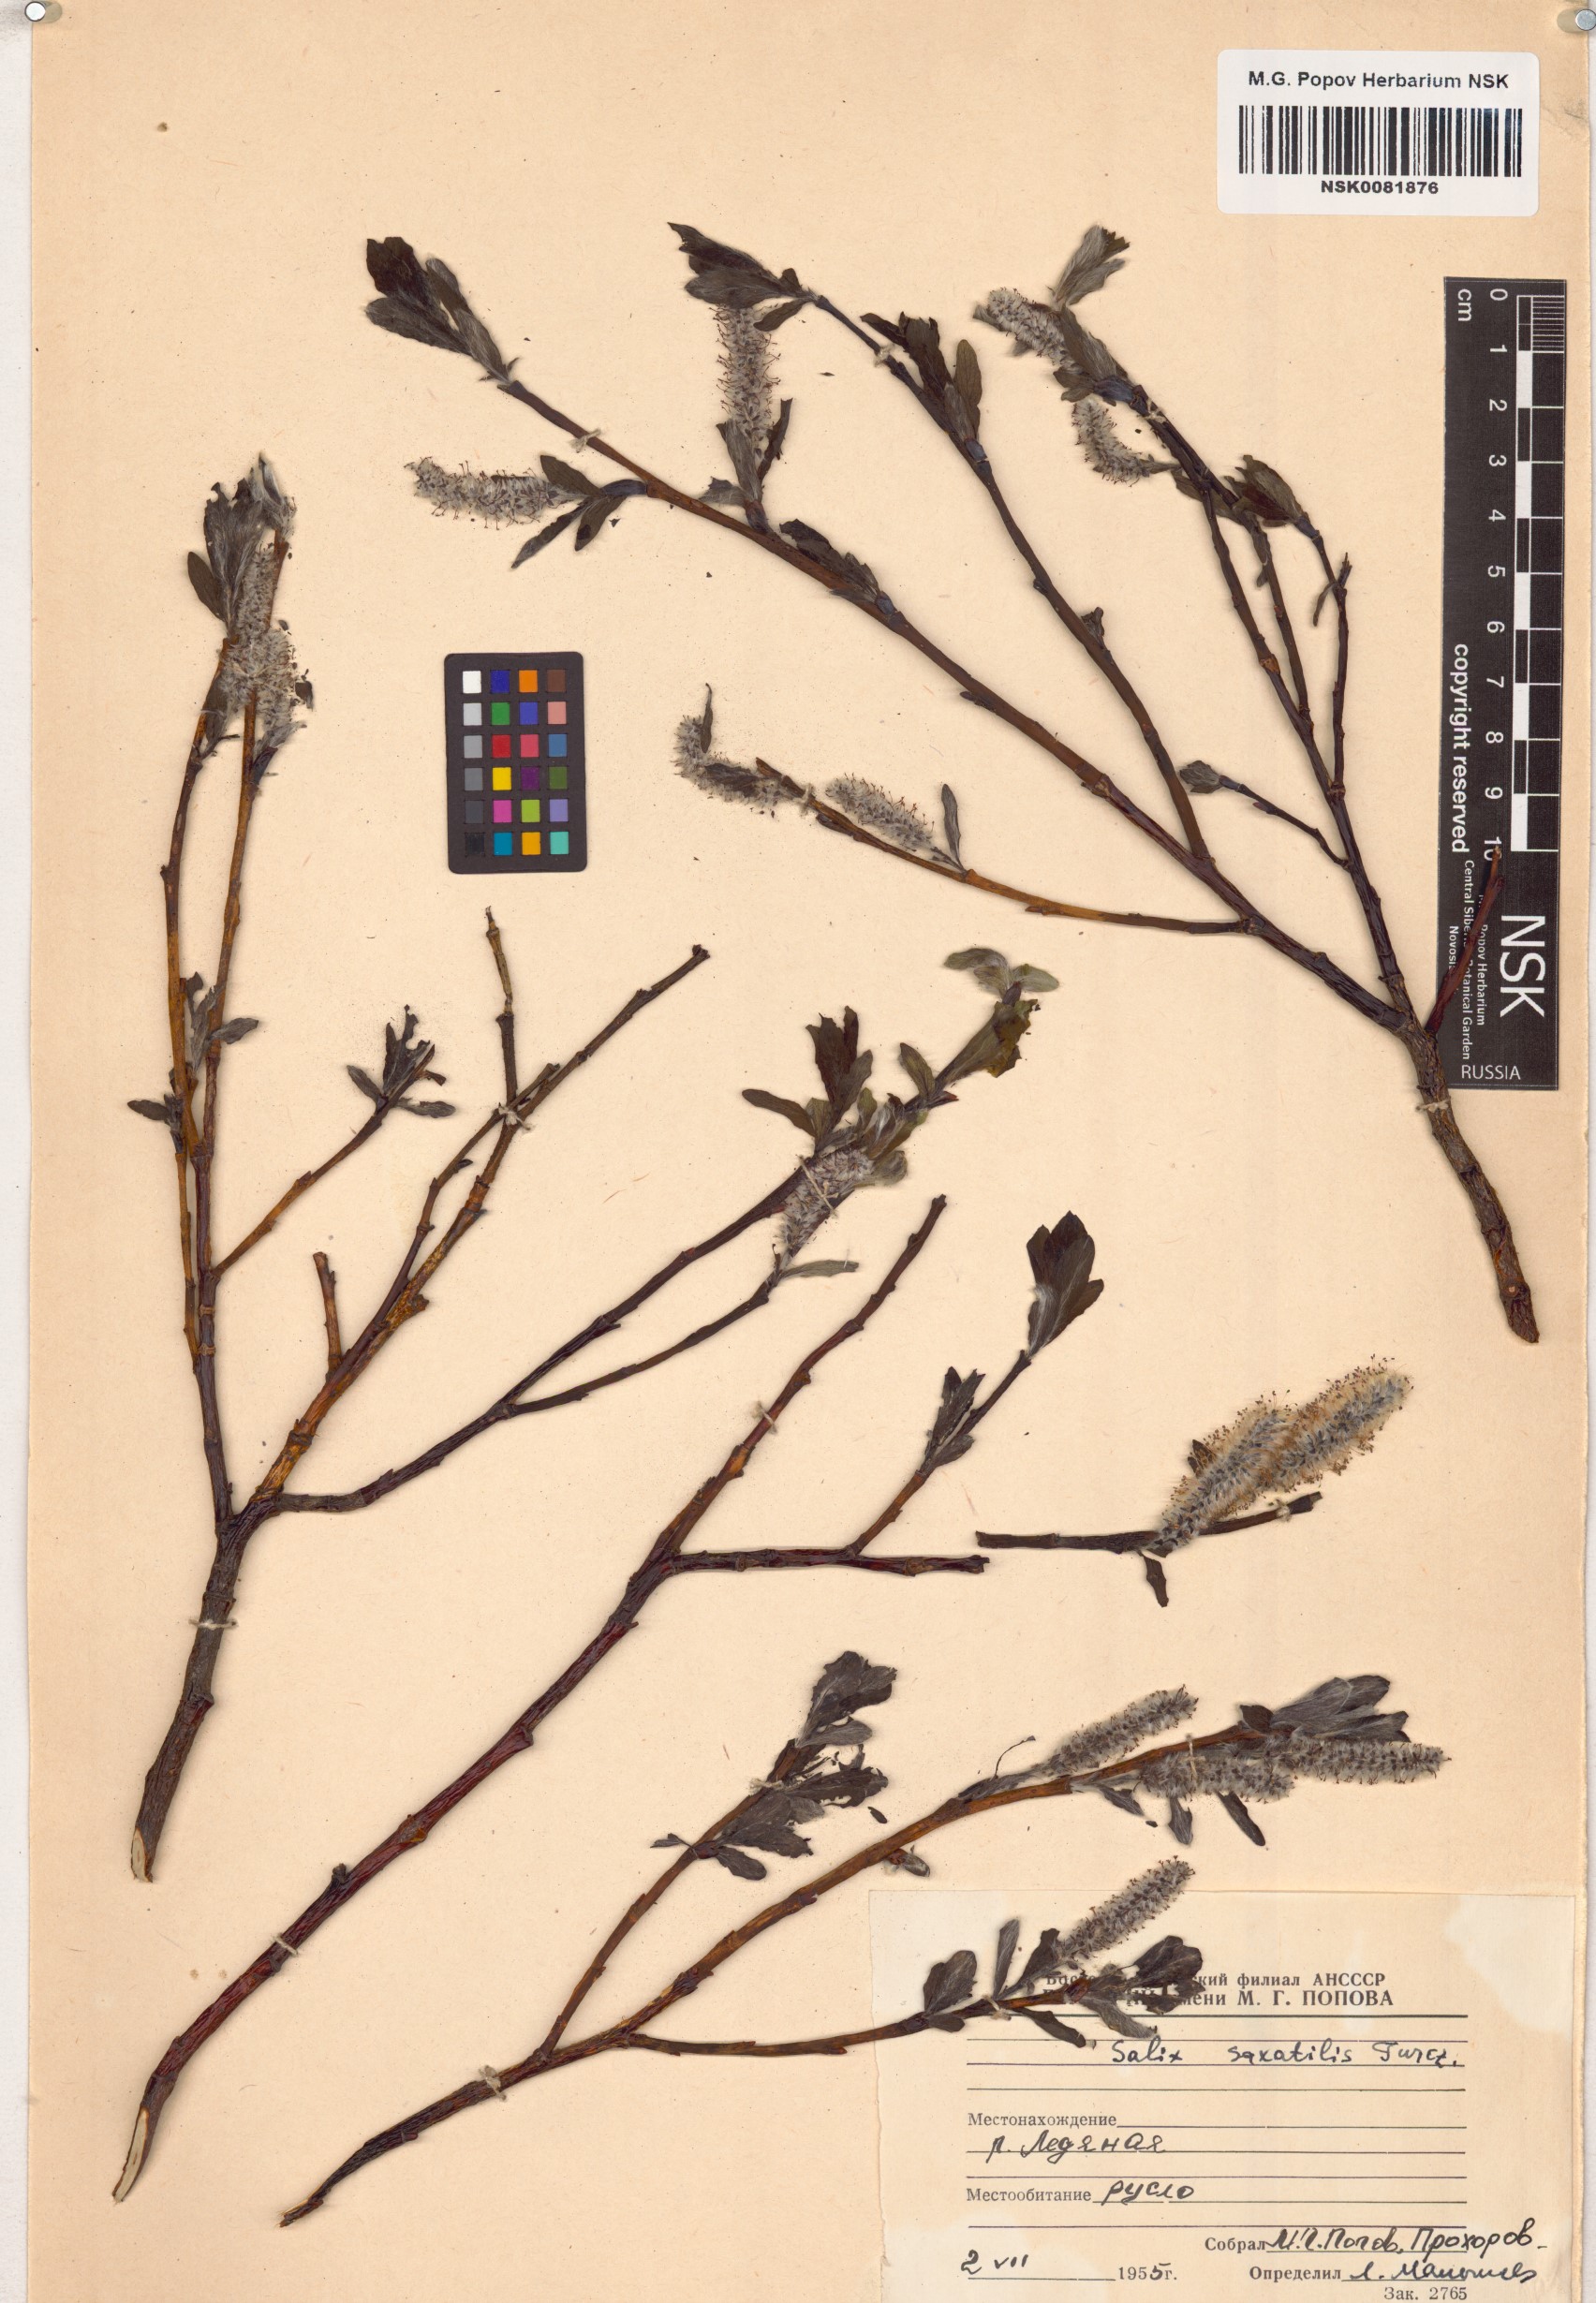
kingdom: Plantae
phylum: Tracheophyta
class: Magnoliopsida
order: Malpighiales
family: Salicaceae
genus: Salix
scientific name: Salix saxatilis
